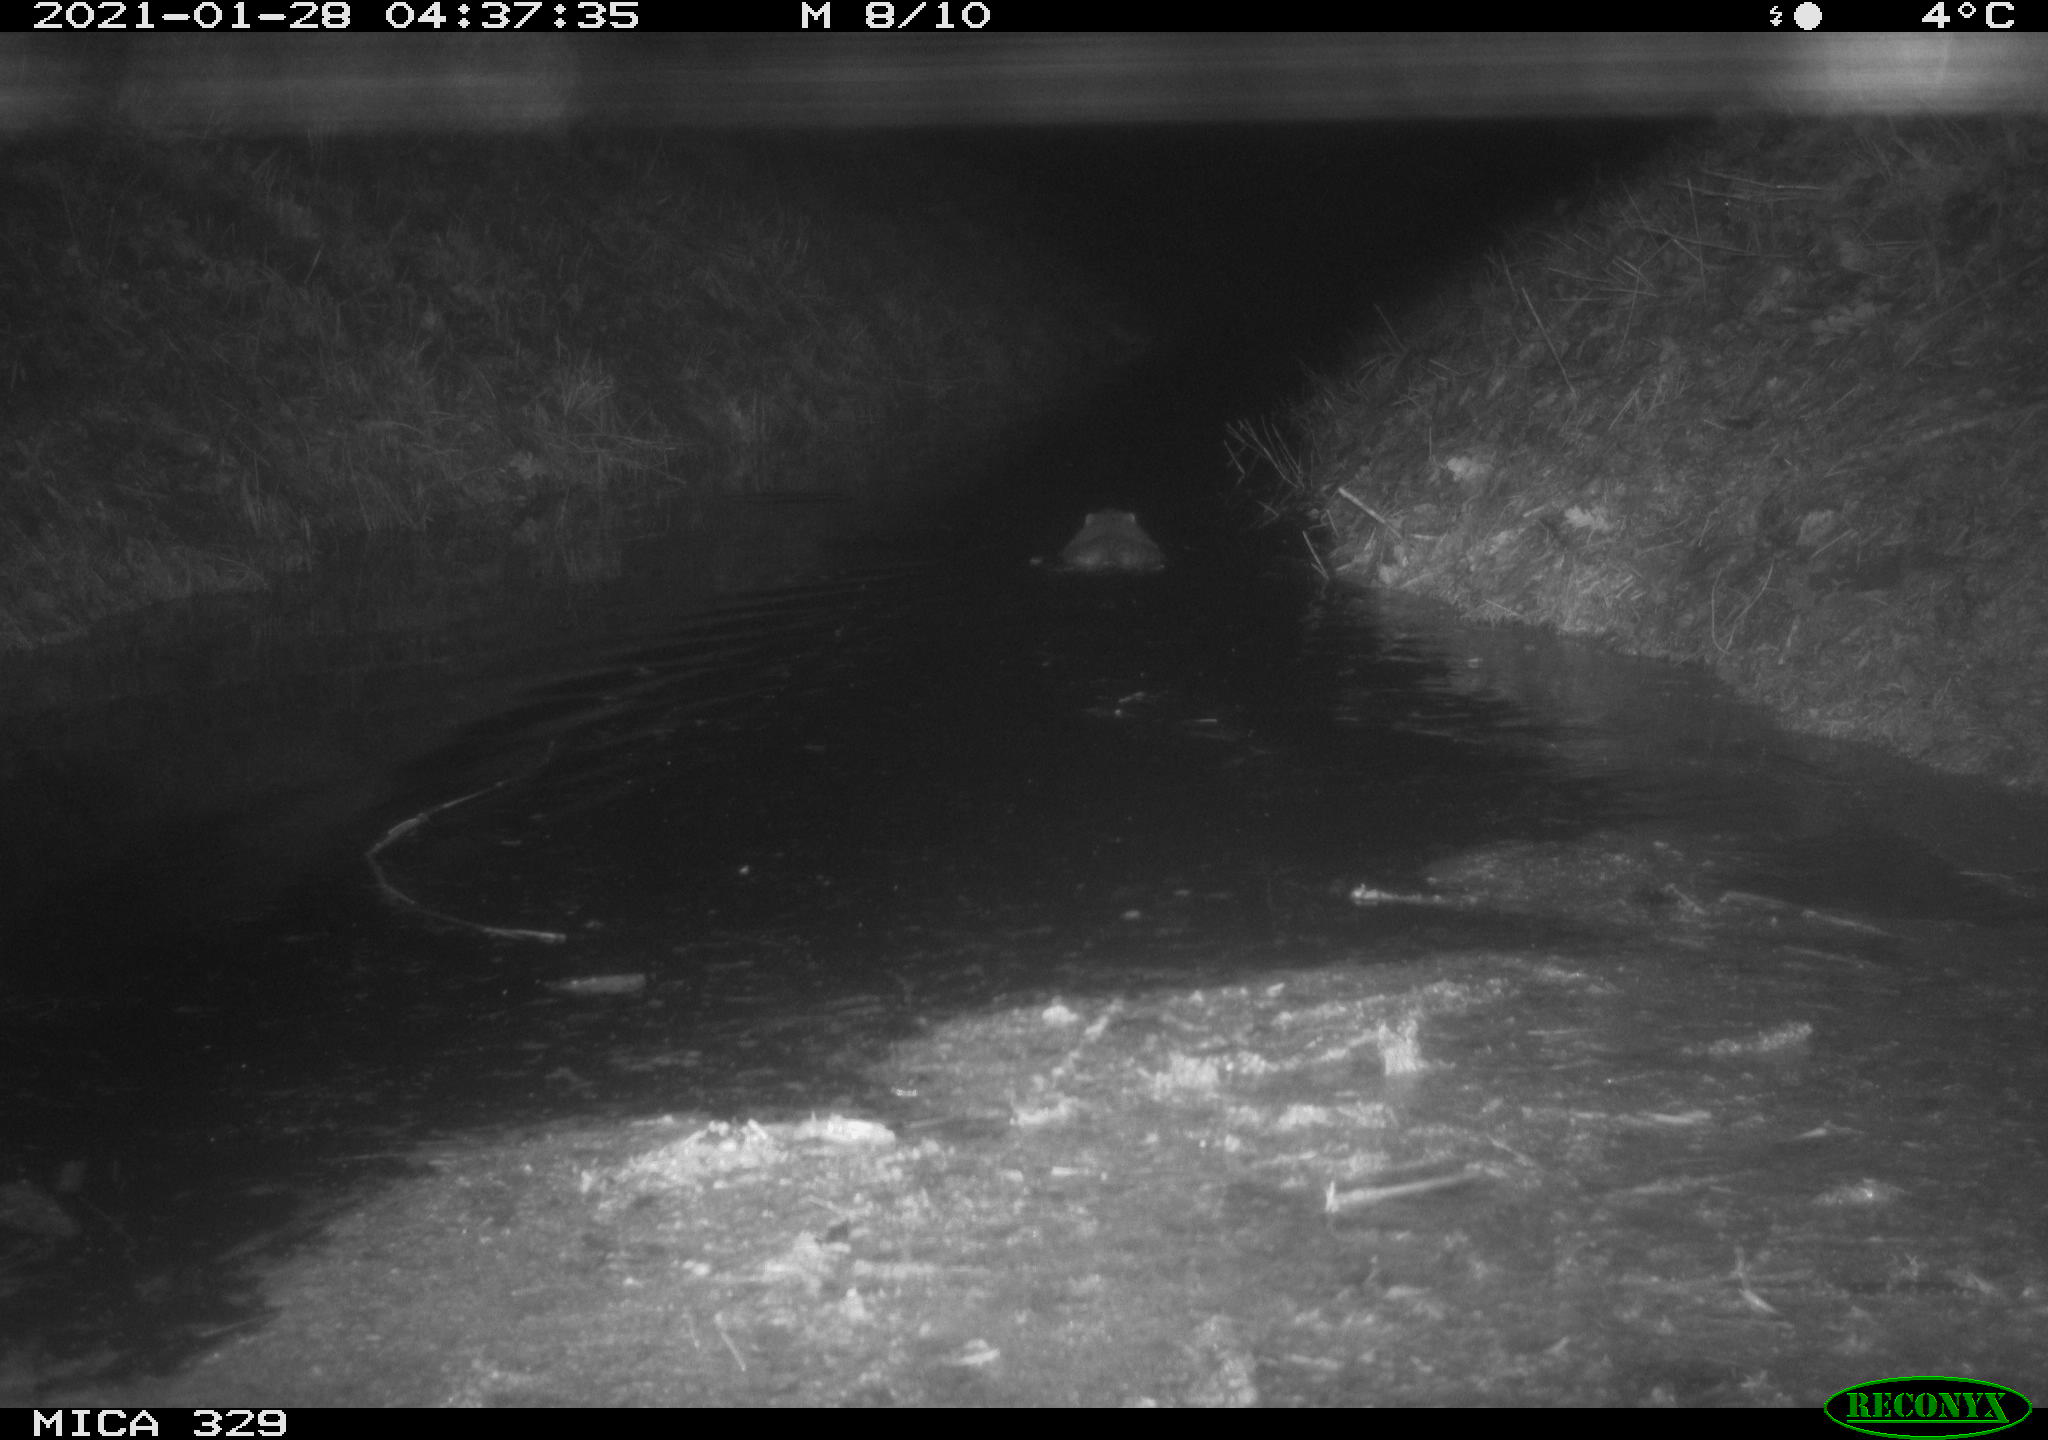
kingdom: Animalia
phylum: Chordata
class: Mammalia
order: Rodentia
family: Myocastoridae
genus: Myocastor
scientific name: Myocastor coypus
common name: Coypu
